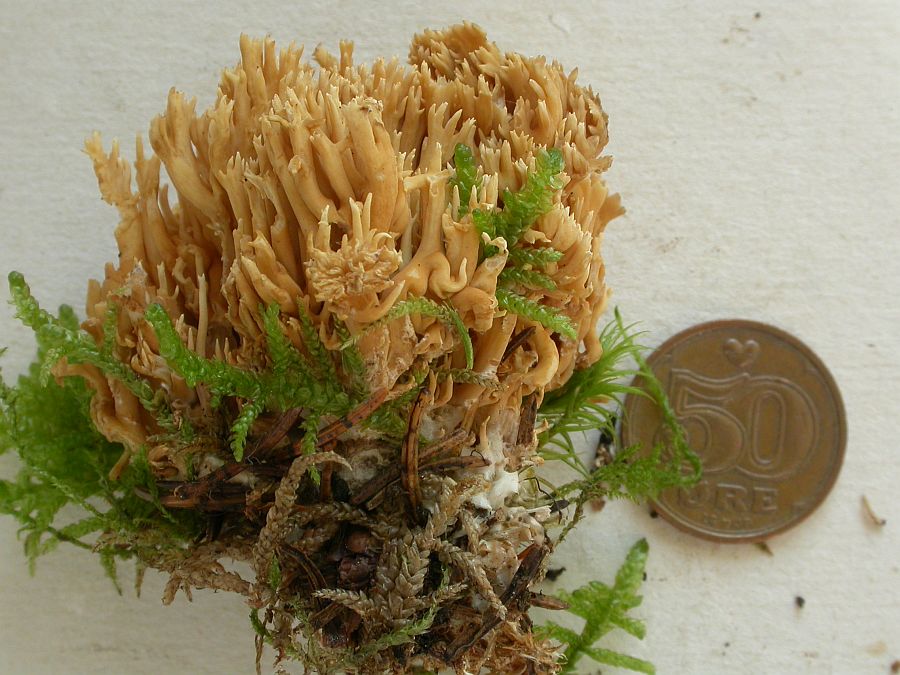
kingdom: Fungi
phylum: Basidiomycota
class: Agaricomycetes
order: Gomphales
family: Gomphaceae
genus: Phaeoclavulina
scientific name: Phaeoclavulina eumorpha
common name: gran-koralsvamp
